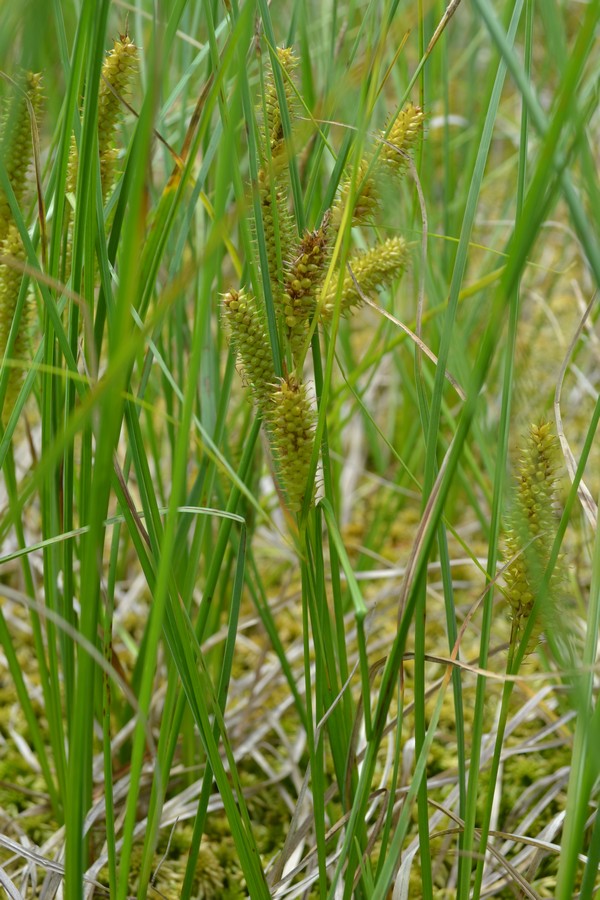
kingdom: Plantae
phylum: Tracheophyta
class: Liliopsida
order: Poales
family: Cyperaceae
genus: Carex
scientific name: Carex nigra
